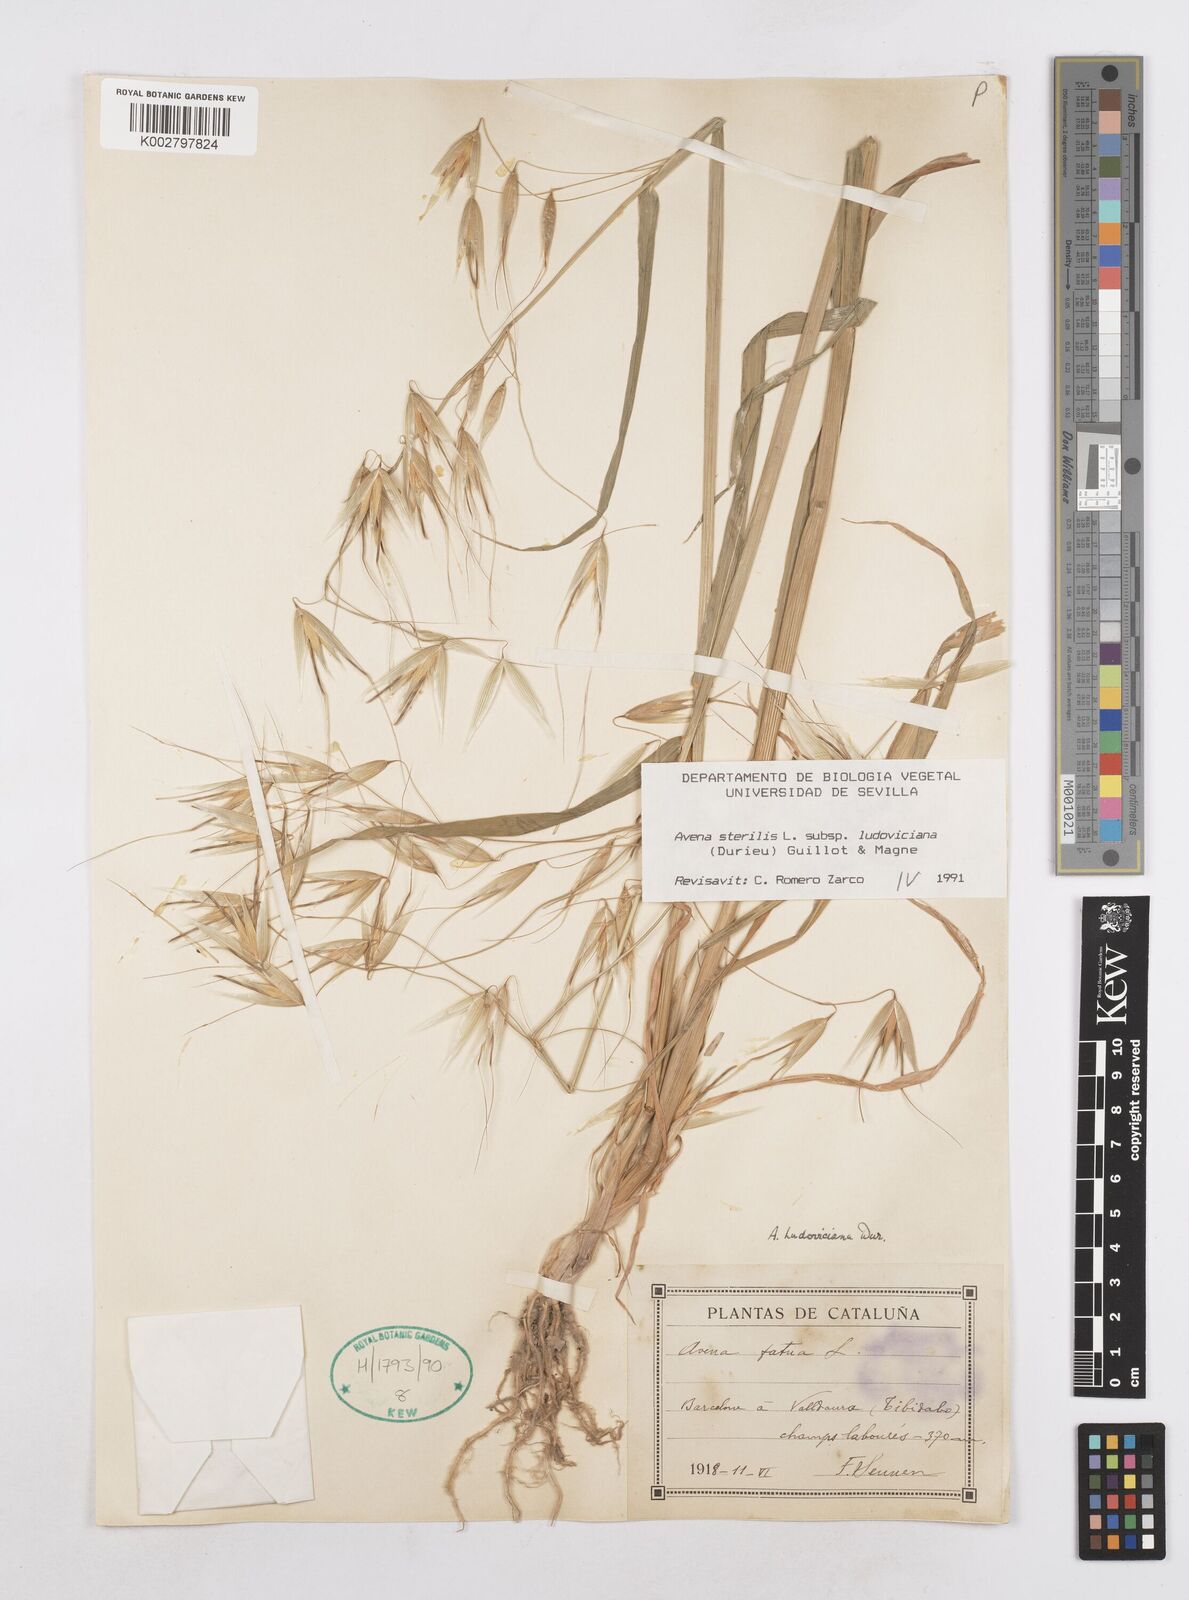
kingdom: Plantae
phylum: Tracheophyta
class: Liliopsida
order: Poales
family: Poaceae
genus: Avena
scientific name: Avena sterilis
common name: Animated oat
